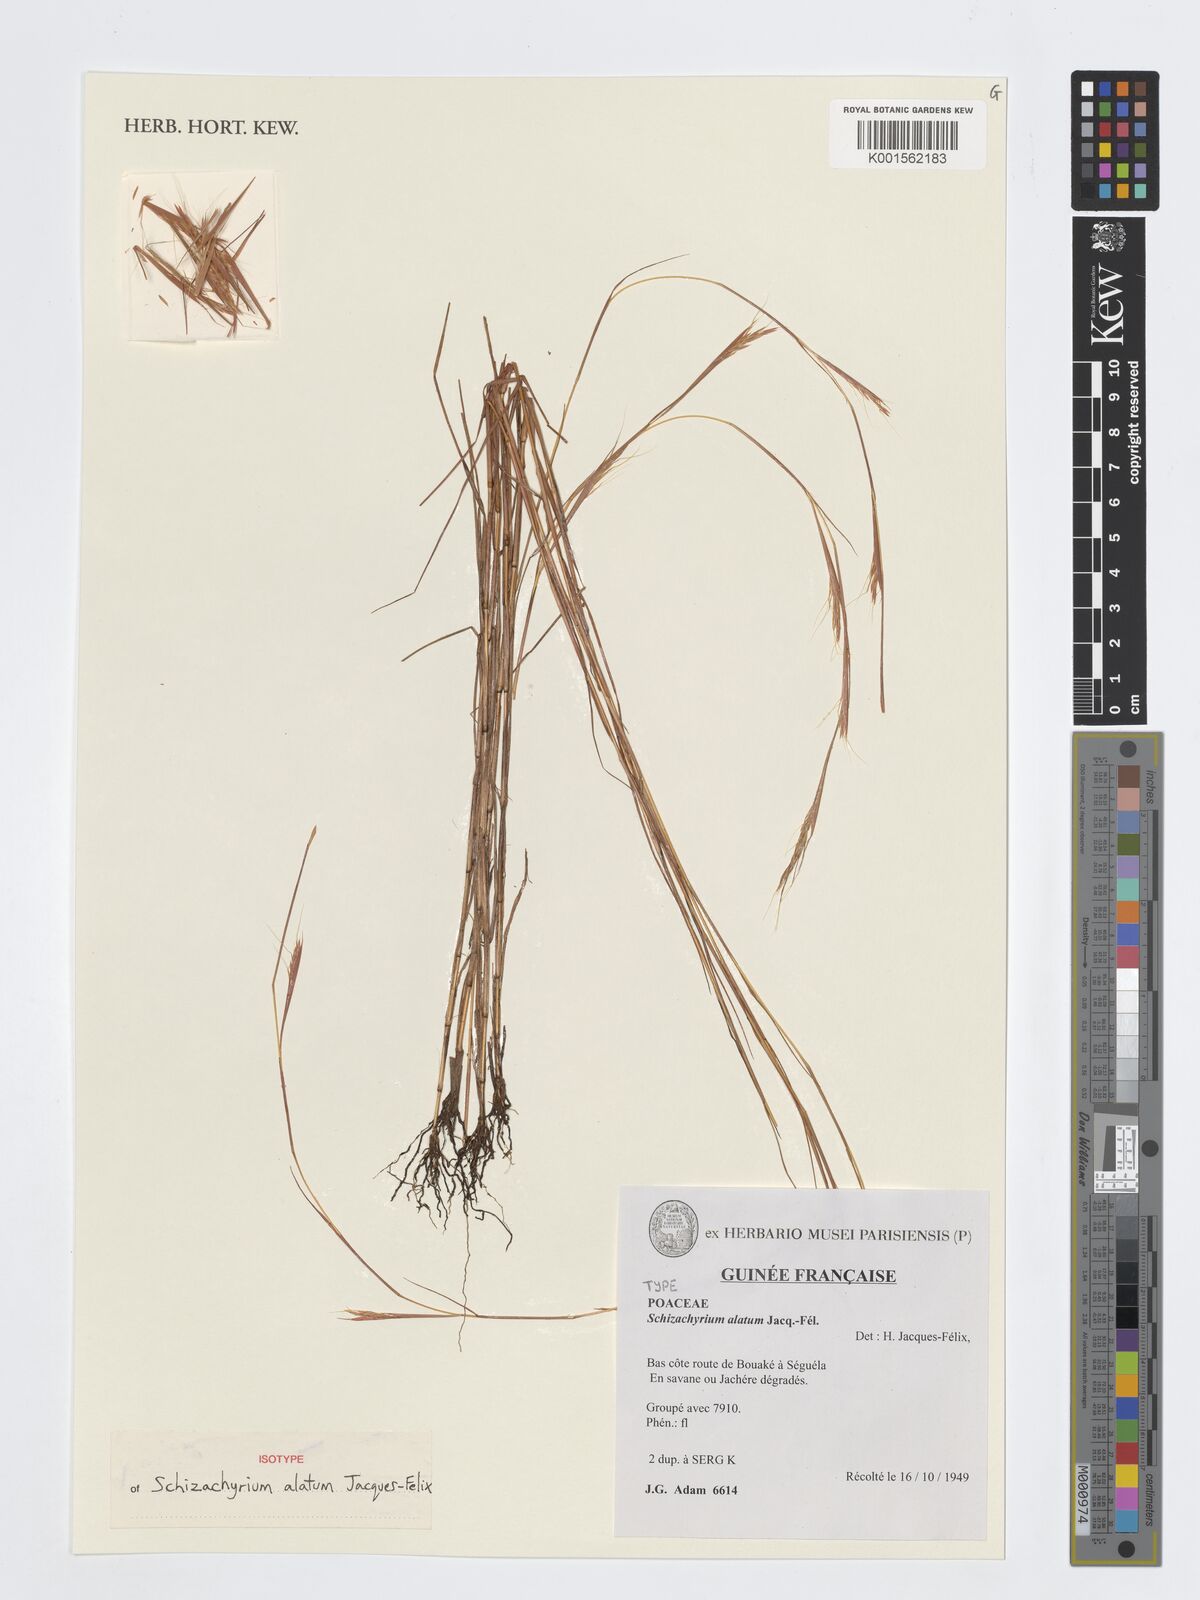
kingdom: Plantae
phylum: Tracheophyta
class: Liliopsida
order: Poales
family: Poaceae
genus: Schizachyrium
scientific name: Schizachyrium delicatum
